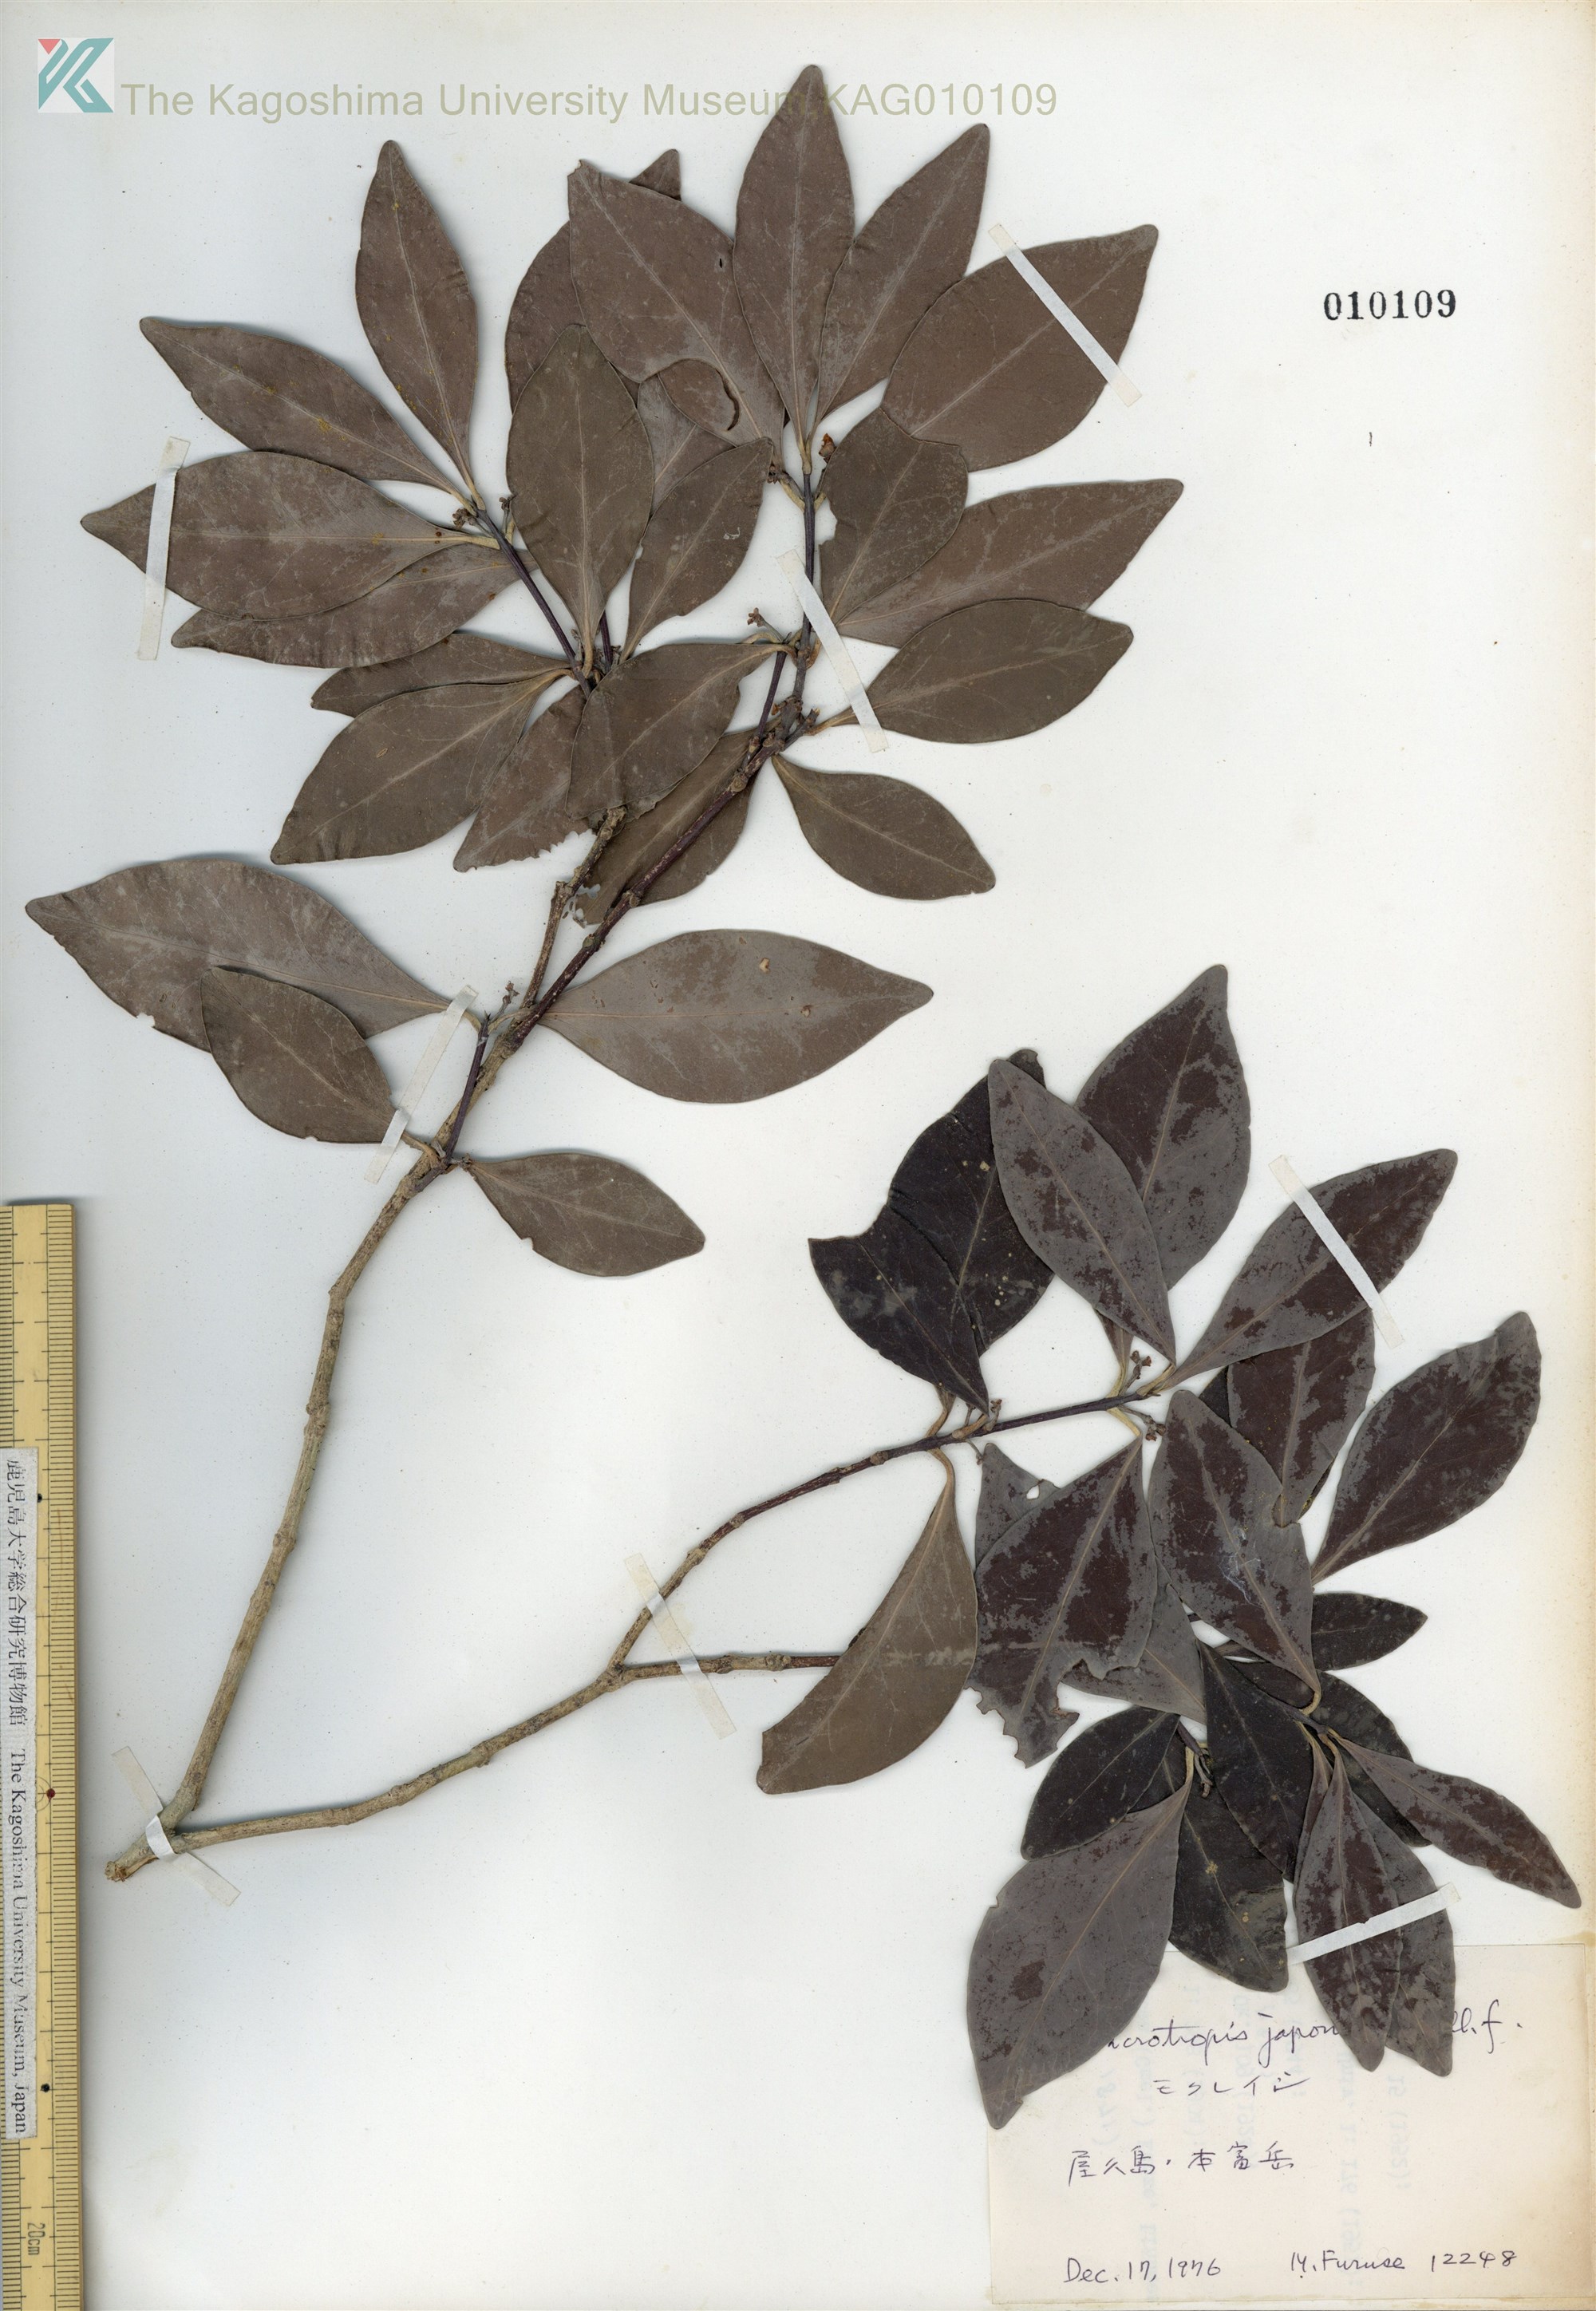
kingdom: Plantae
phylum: Tracheophyta
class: Magnoliopsida
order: Celastrales
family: Celastraceae
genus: Microtropis
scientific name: Microtropis japonica
